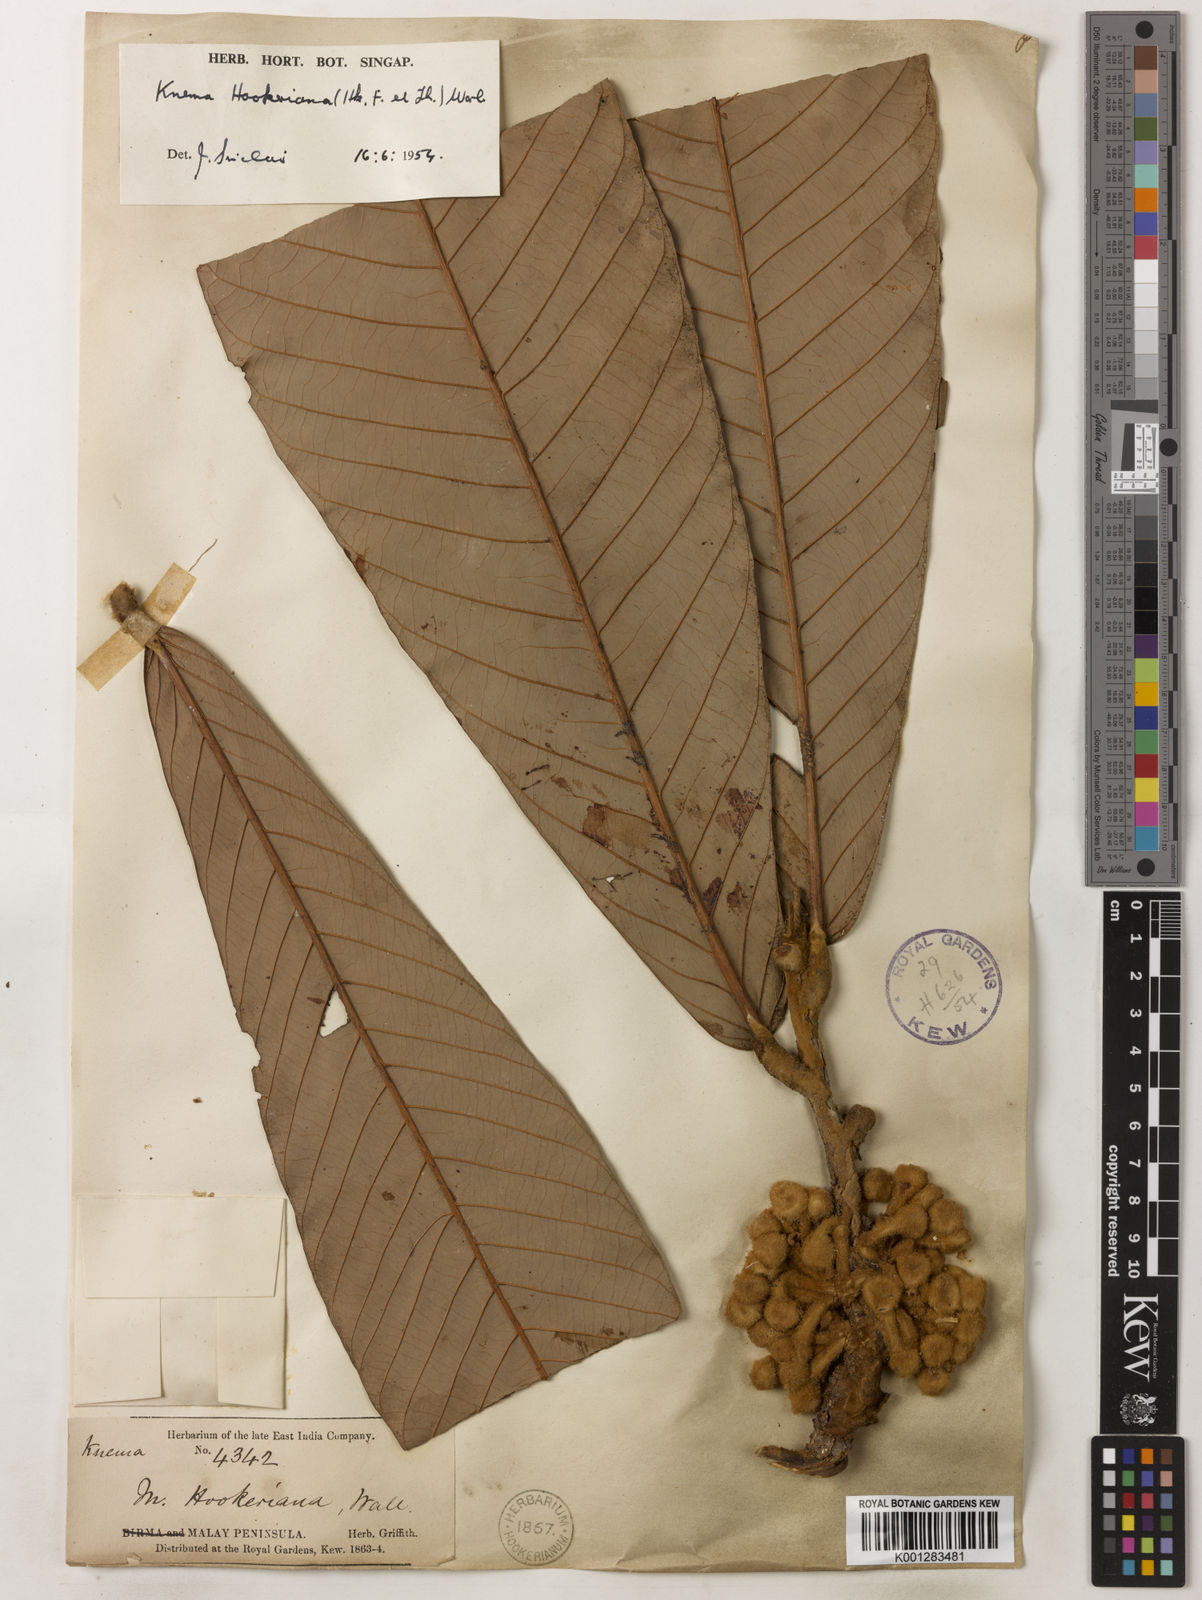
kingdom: Plantae
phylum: Tracheophyta
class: Magnoliopsida
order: Magnoliales
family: Myristicaceae
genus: Knema
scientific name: Knema hookeriana
